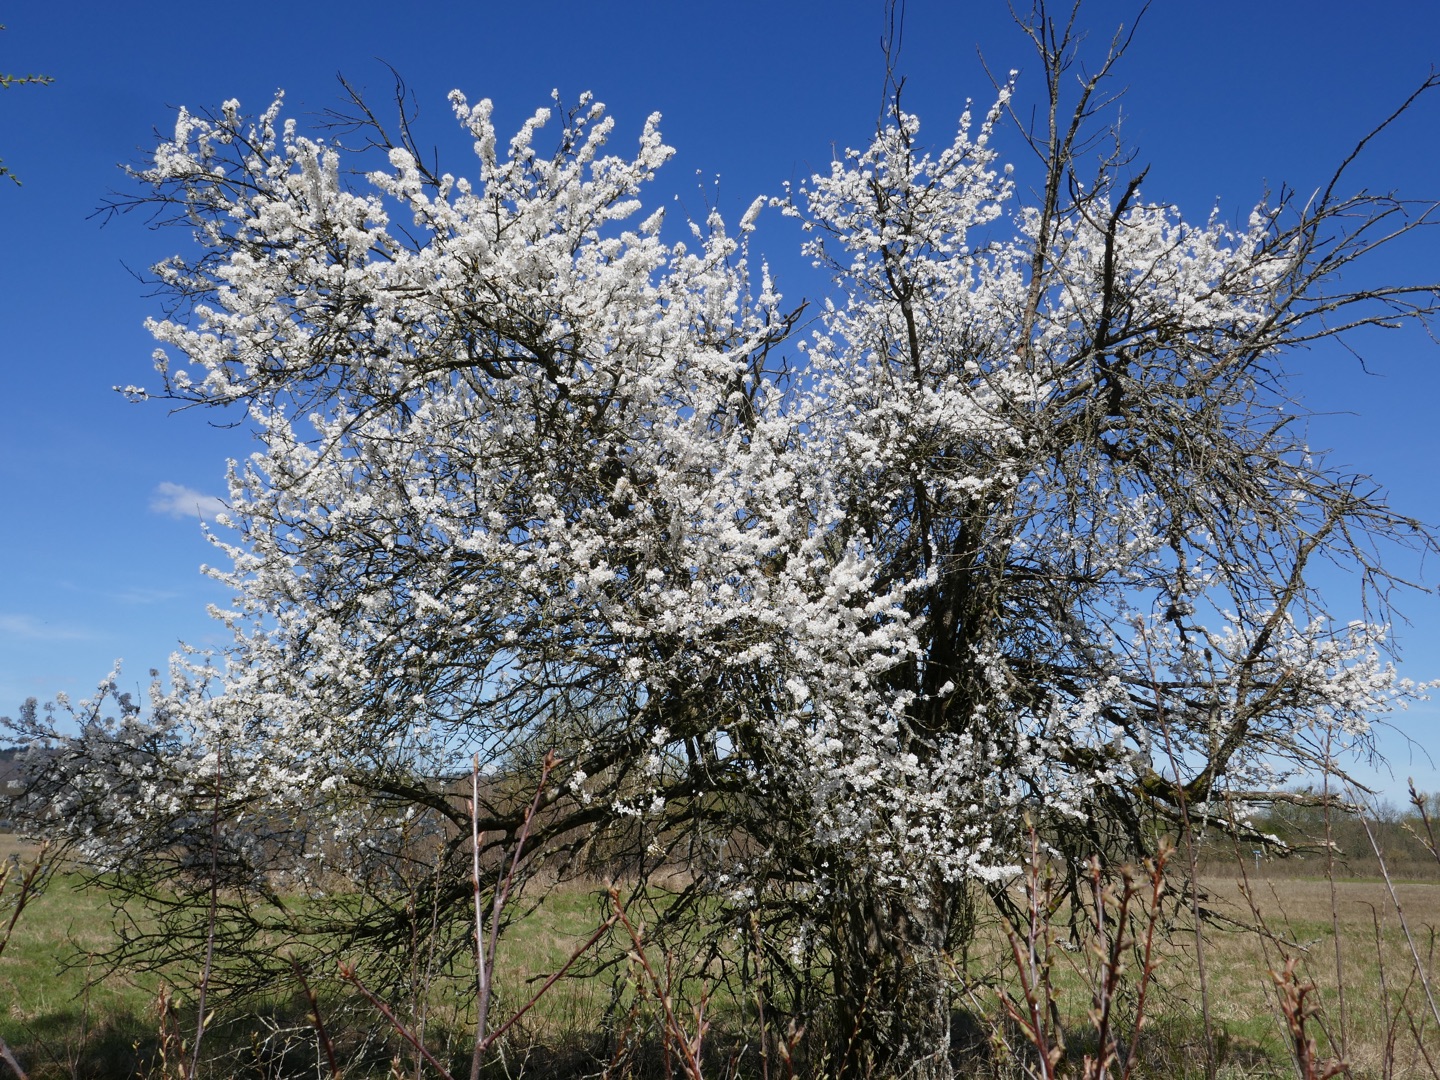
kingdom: Plantae
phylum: Tracheophyta
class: Magnoliopsida
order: Rosales
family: Rosaceae
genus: Prunus
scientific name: Prunus cerasifera
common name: Mirabel
